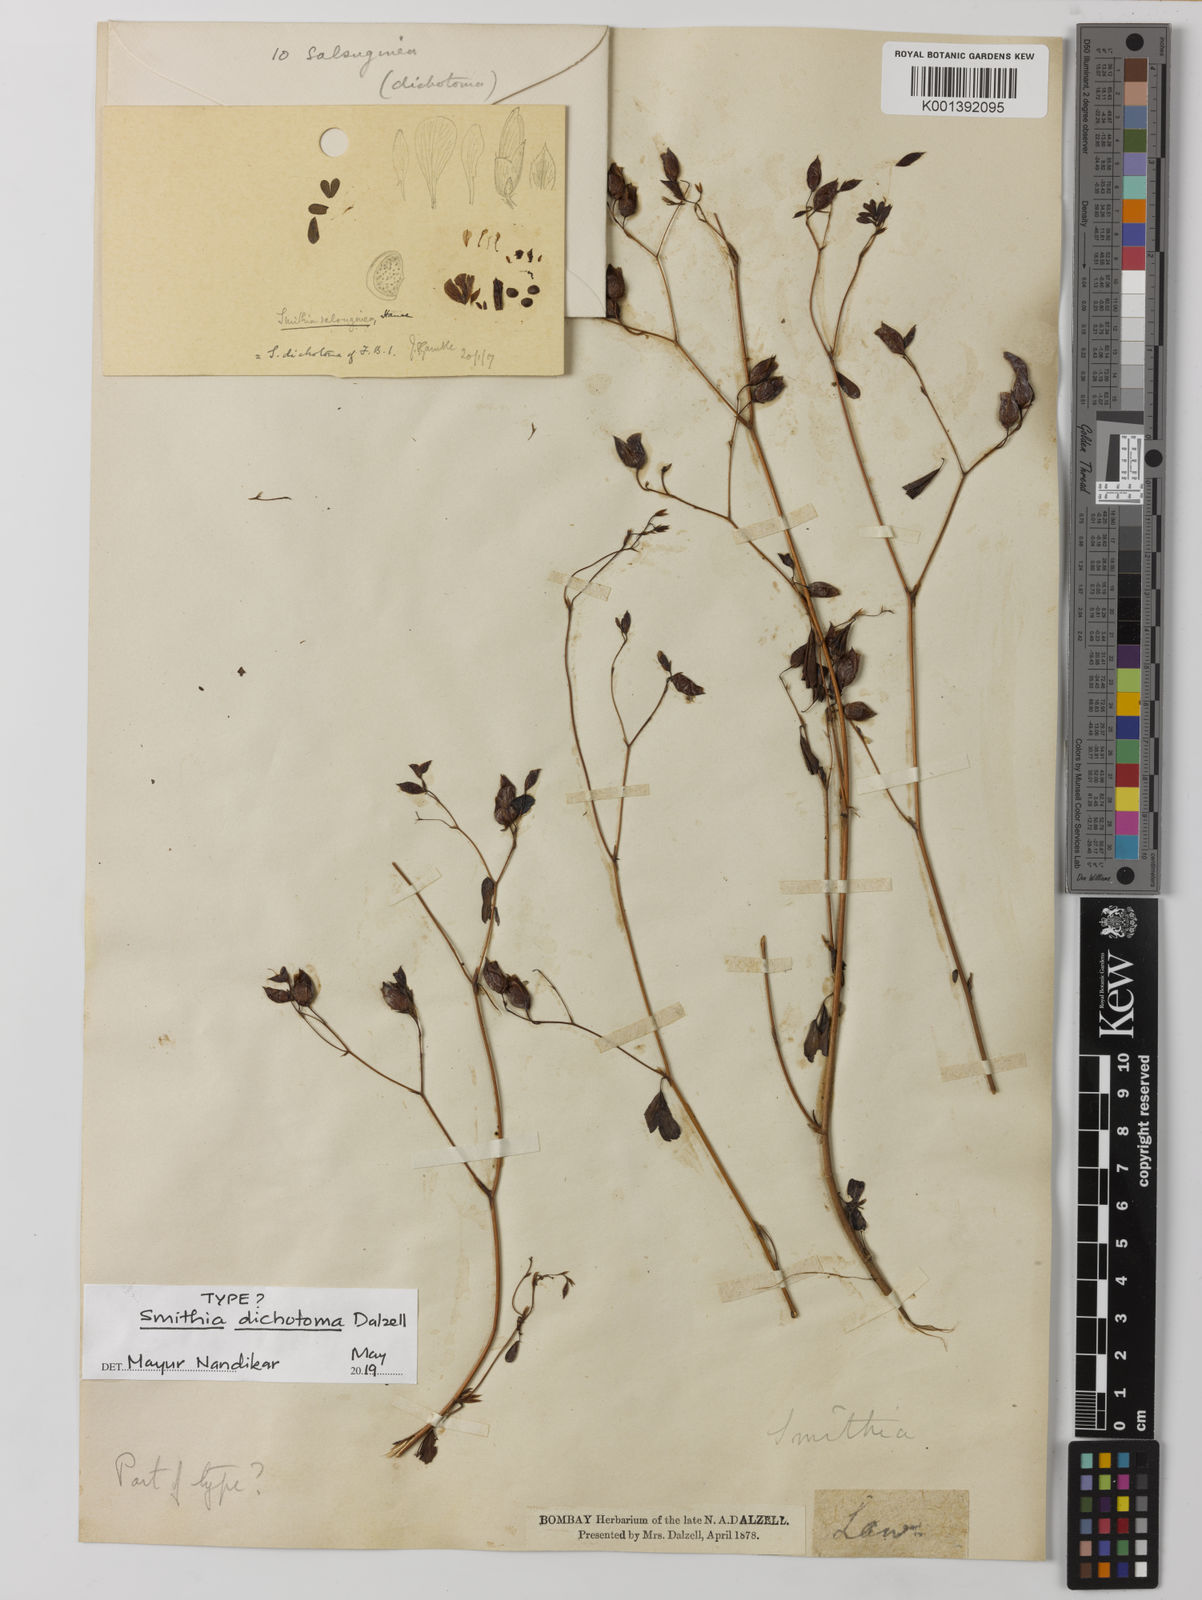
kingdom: Plantae
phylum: Tracheophyta
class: Magnoliopsida
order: Fabales
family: Fabaceae
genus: Smithia
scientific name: Smithia salsuginea
